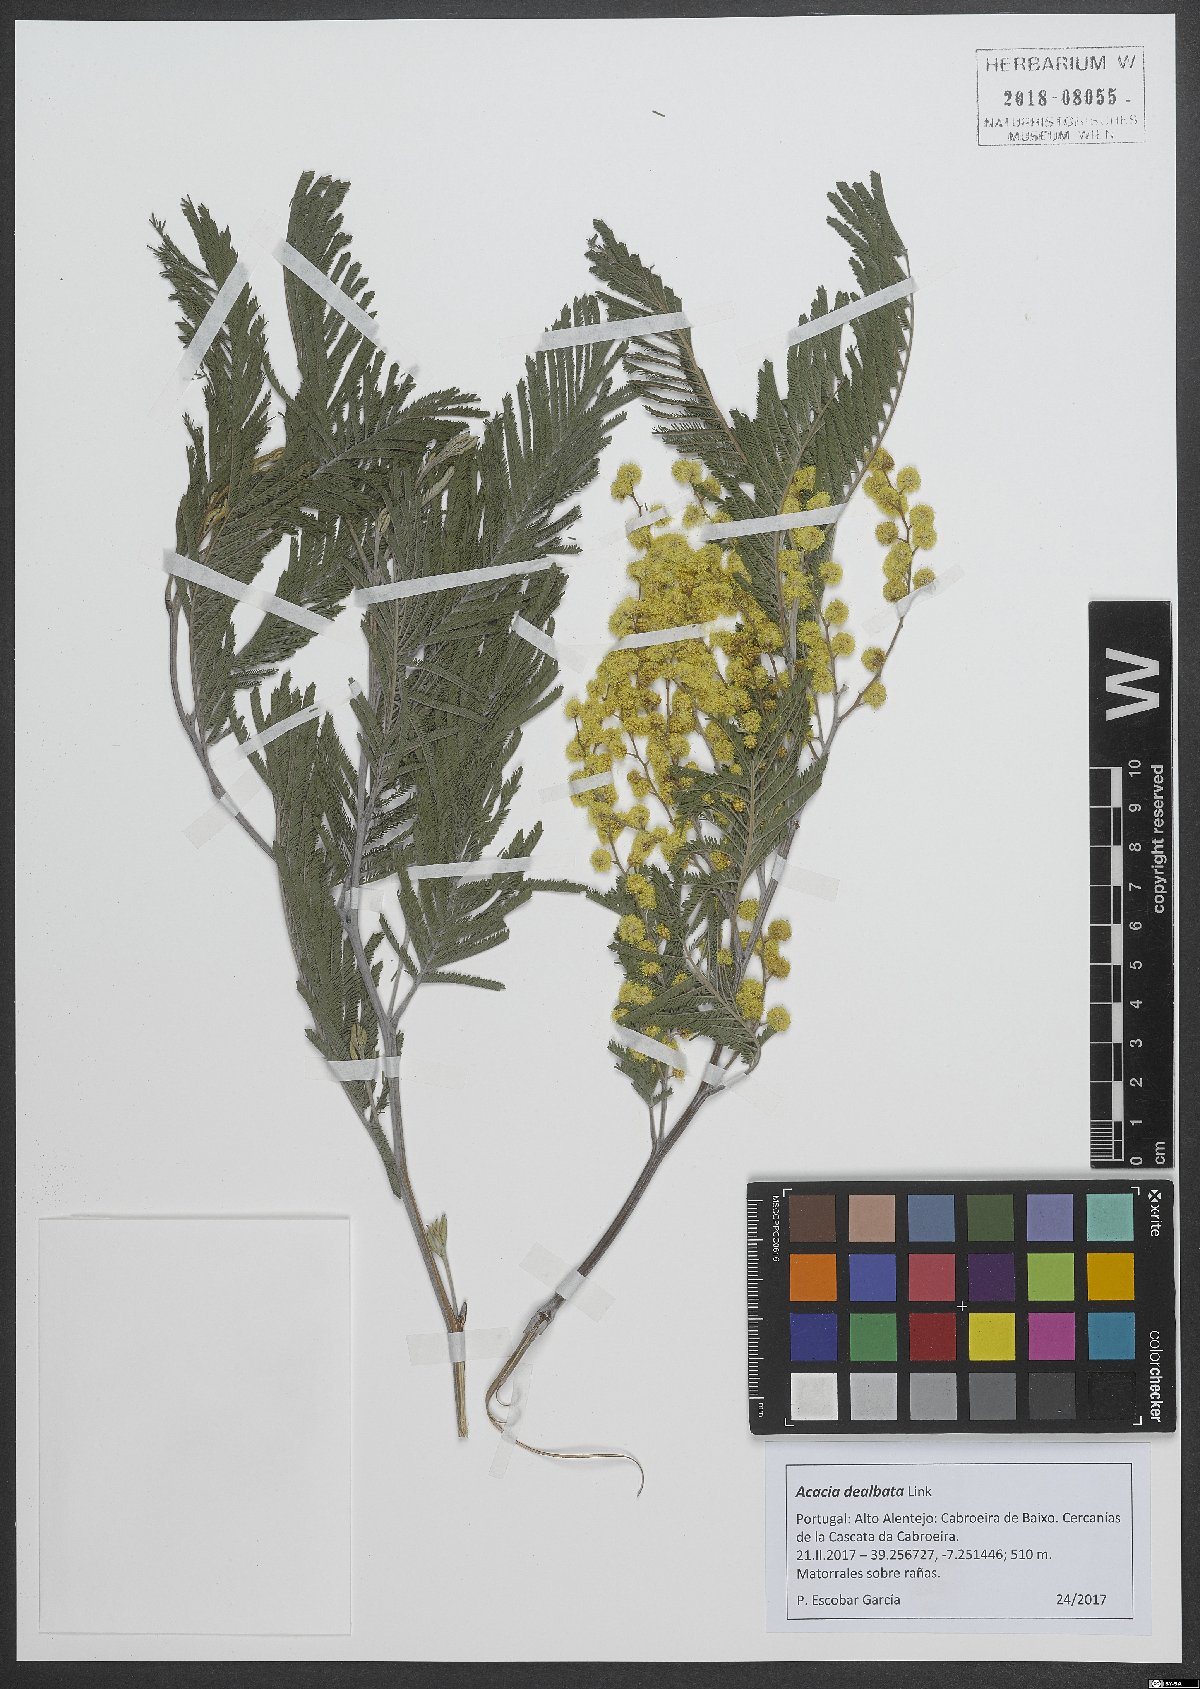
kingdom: Plantae
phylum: Tracheophyta
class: Magnoliopsida
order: Fabales
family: Fabaceae
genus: Acacia
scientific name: Acacia dealbata
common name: Silver wattle
